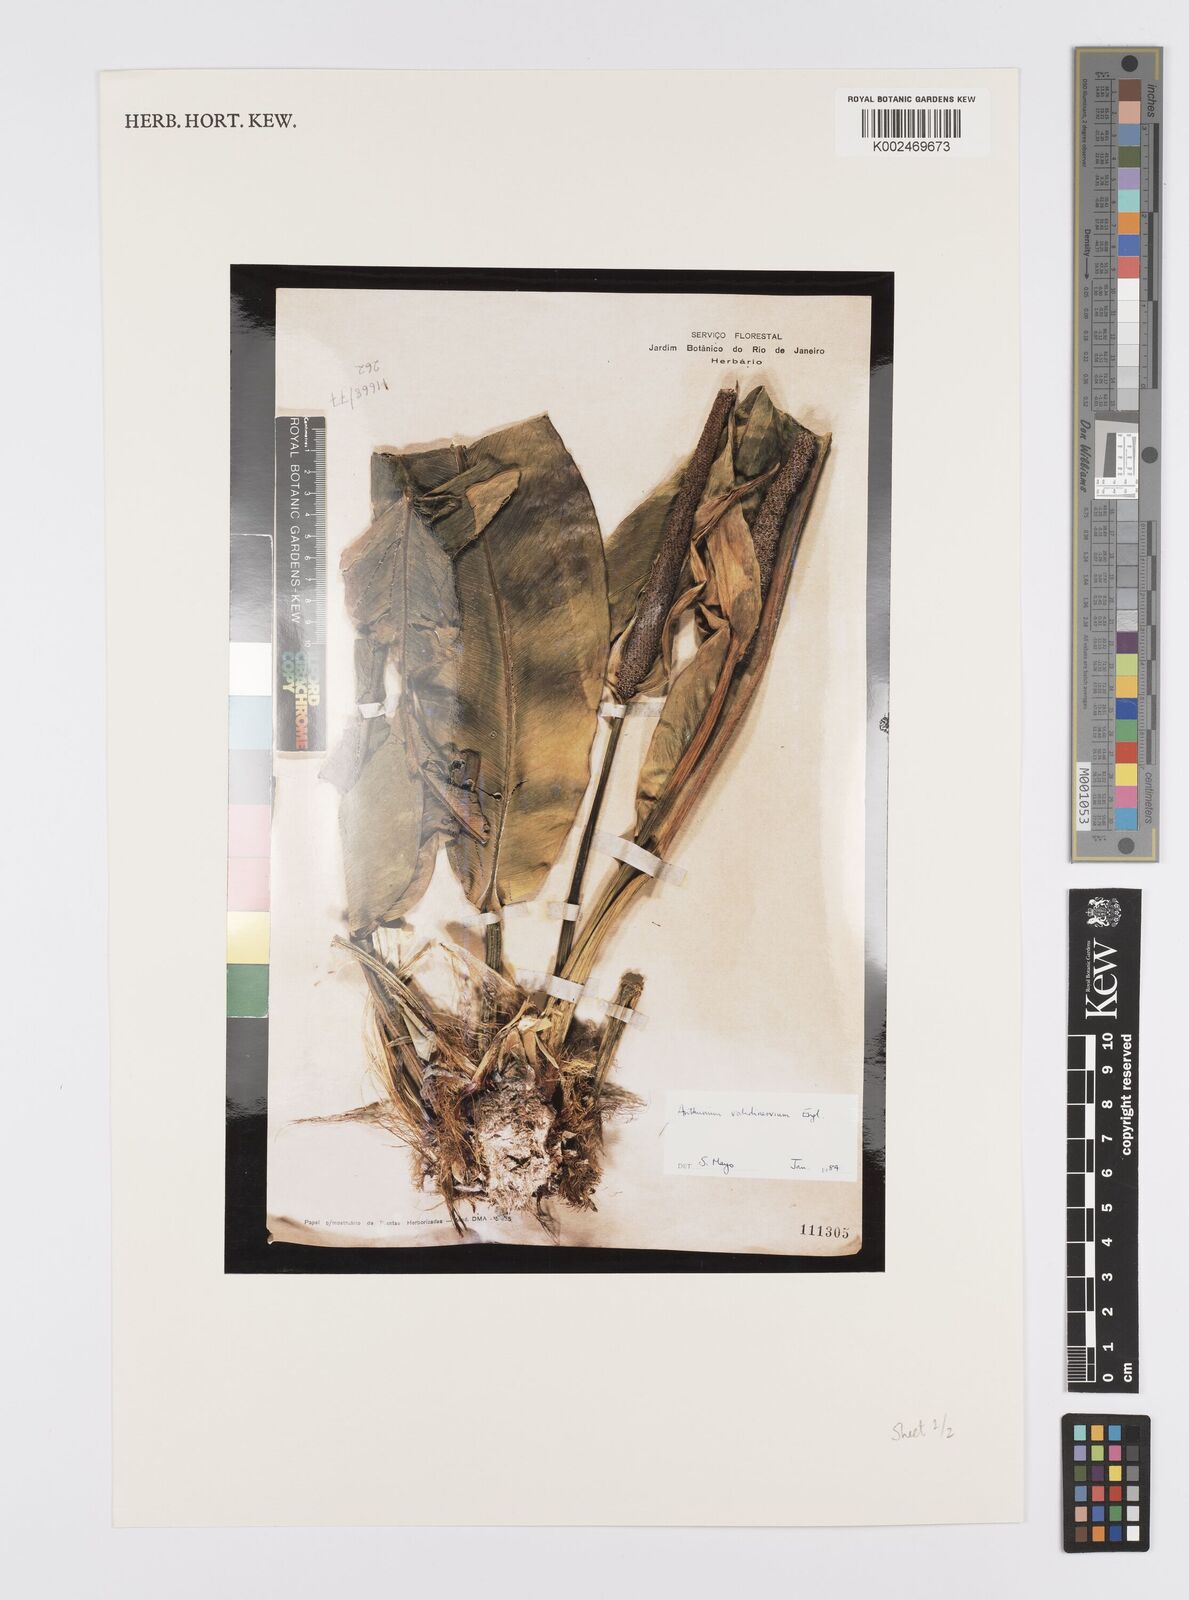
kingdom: Plantae
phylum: Tracheophyta
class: Liliopsida
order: Alismatales
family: Araceae
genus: Anthurium
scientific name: Anthurium validinervium
